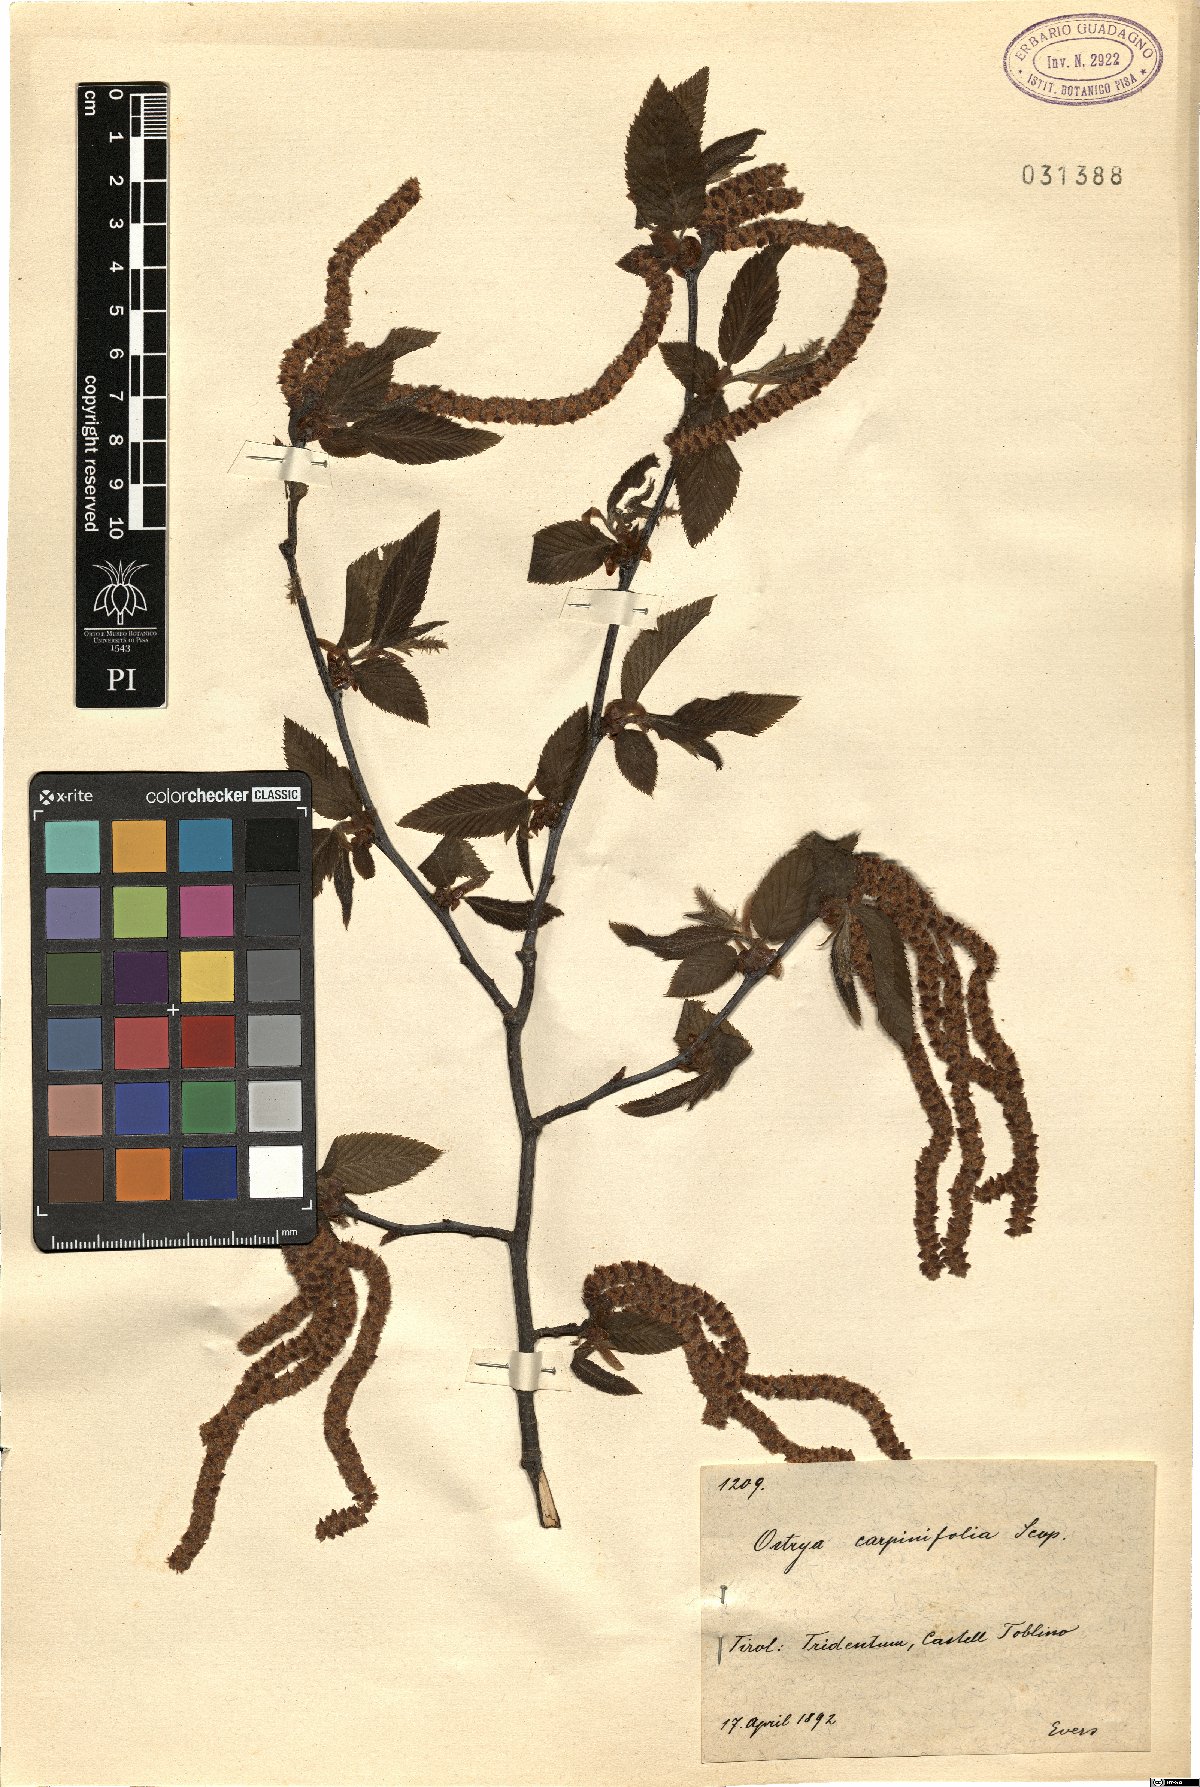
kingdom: Plantae
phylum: Tracheophyta
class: Magnoliopsida
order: Fagales
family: Betulaceae
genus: Ostrya
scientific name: Ostrya carpinifolia
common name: European hop-hornbeam
